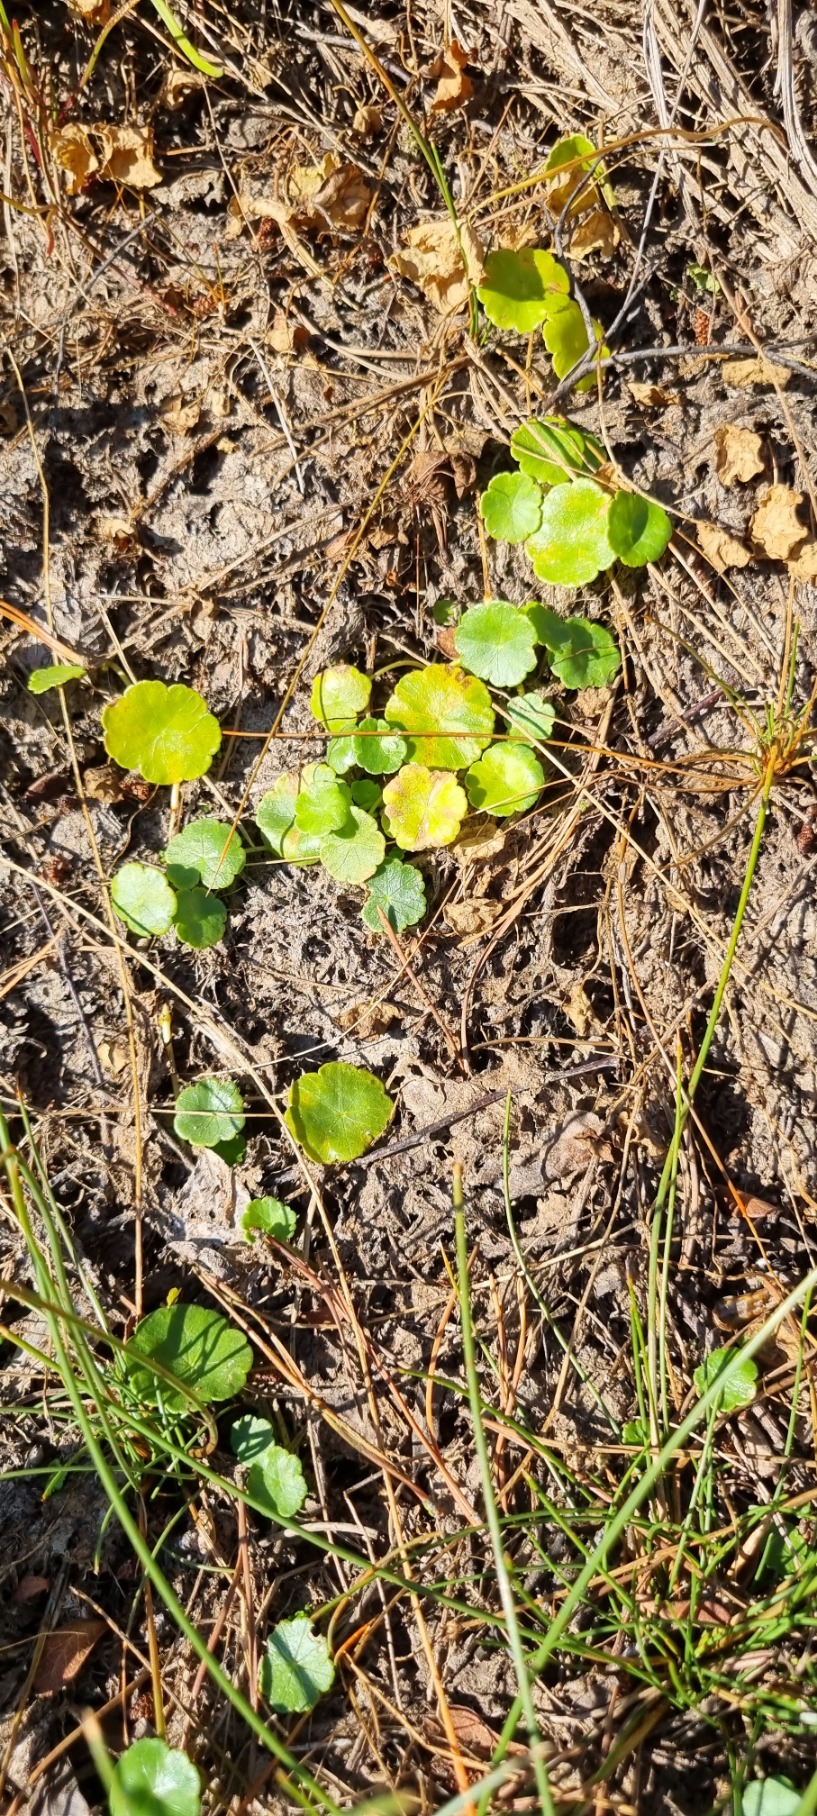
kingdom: Plantae
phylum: Tracheophyta
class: Magnoliopsida
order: Apiales
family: Araliaceae
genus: Hydrocotyle
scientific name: Hydrocotyle vulgaris
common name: Vandnavle
